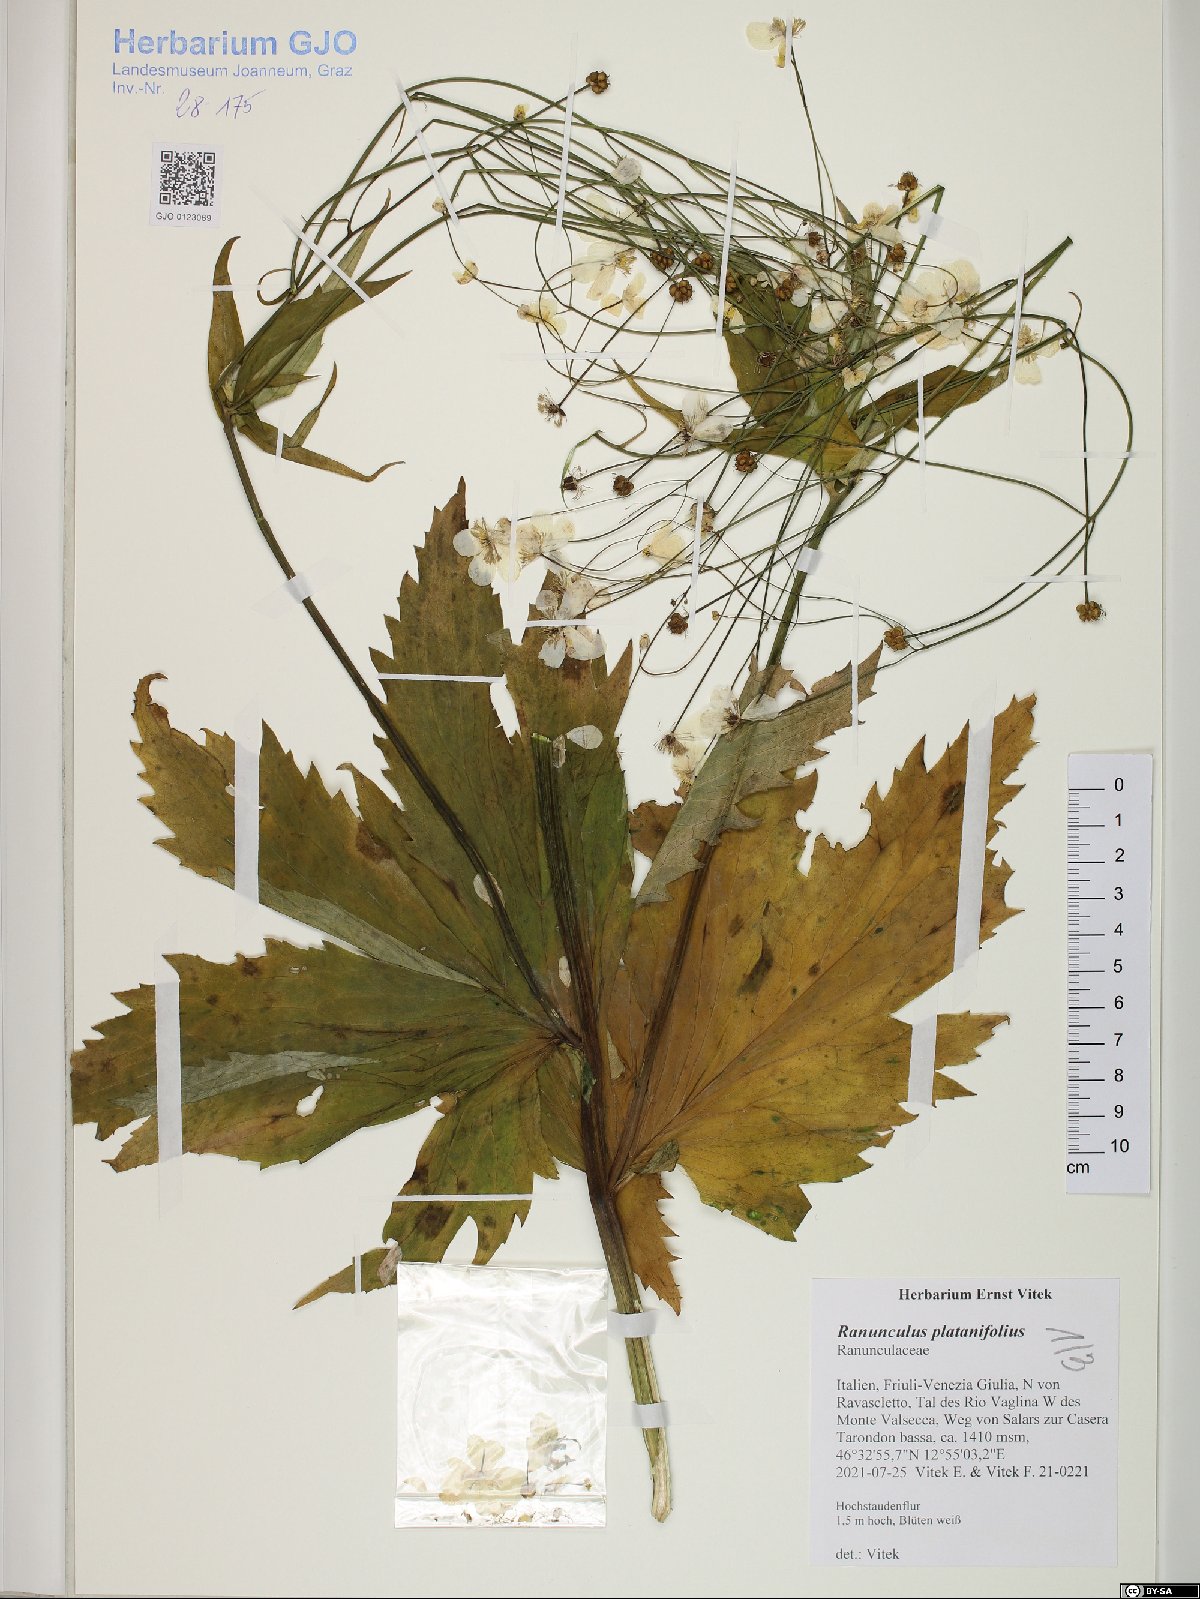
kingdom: Plantae
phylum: Tracheophyta
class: Magnoliopsida
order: Ranunculales
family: Ranunculaceae
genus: Ranunculus
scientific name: Ranunculus platanifolius
